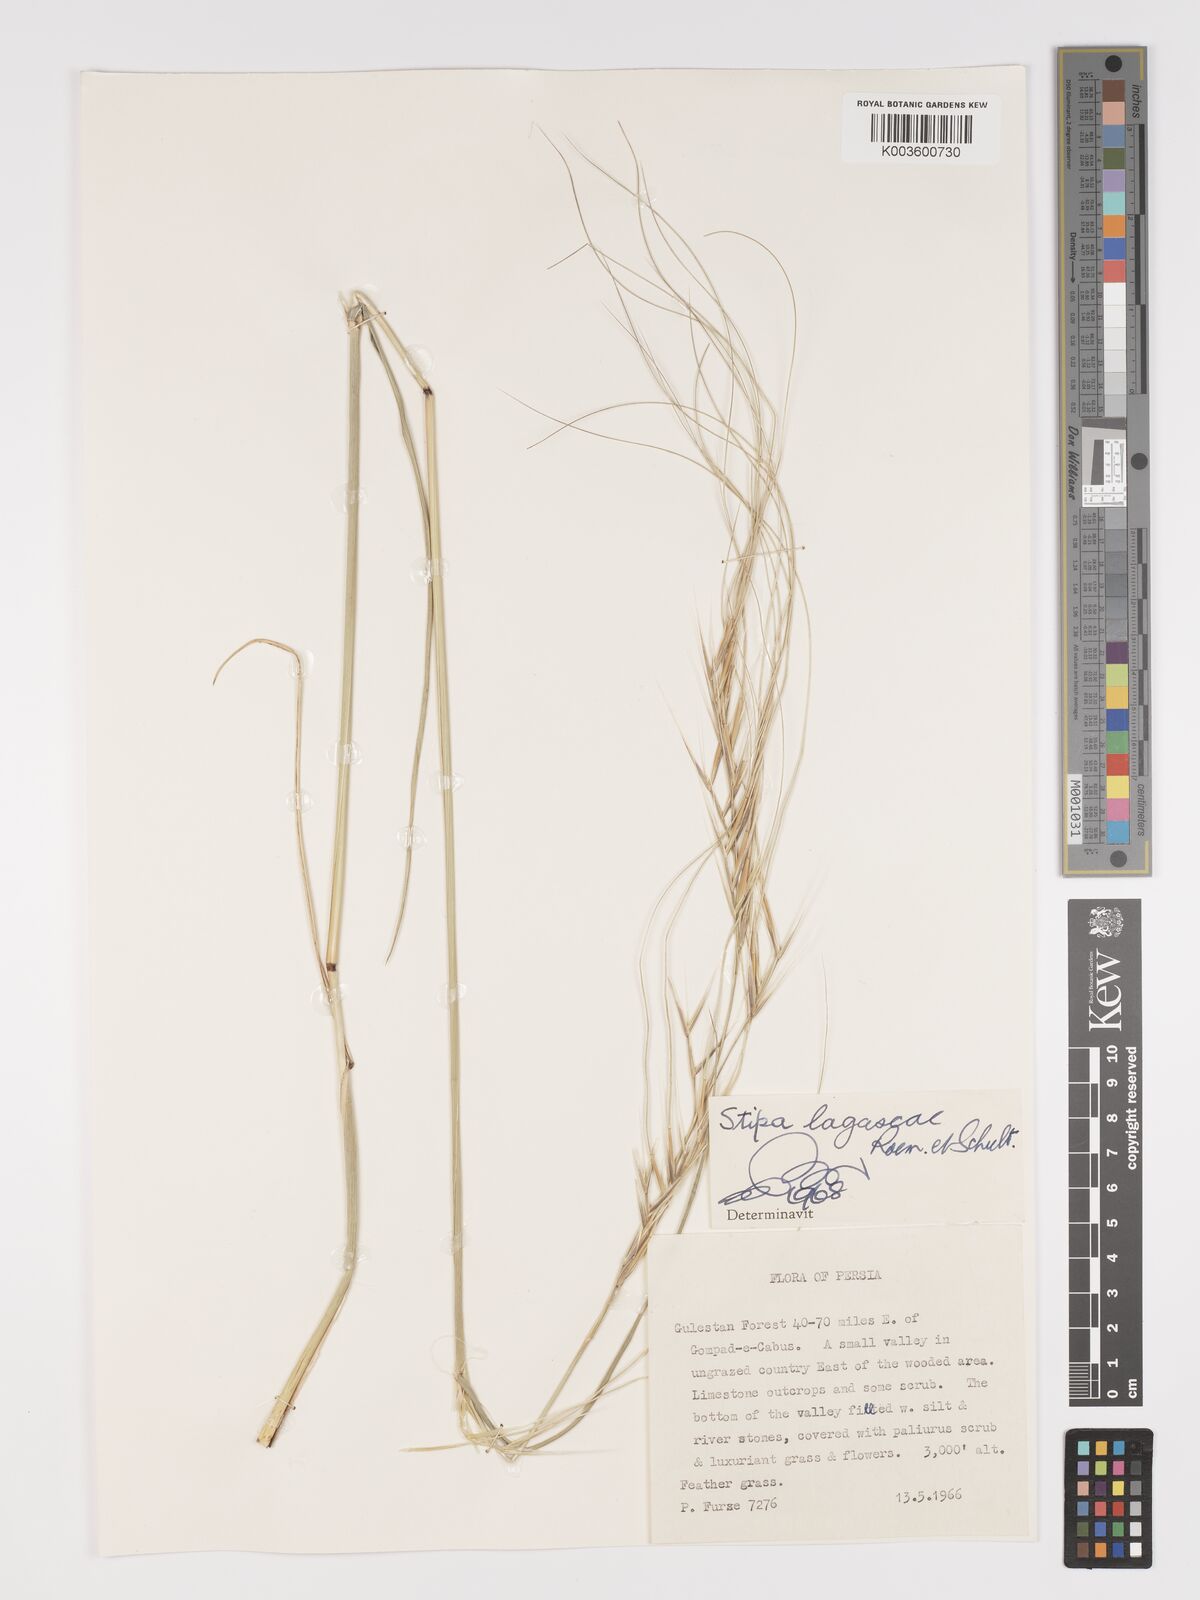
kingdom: Plantae
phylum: Tracheophyta
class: Liliopsida
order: Poales
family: Poaceae
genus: Stipa
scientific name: Stipa holosericea
